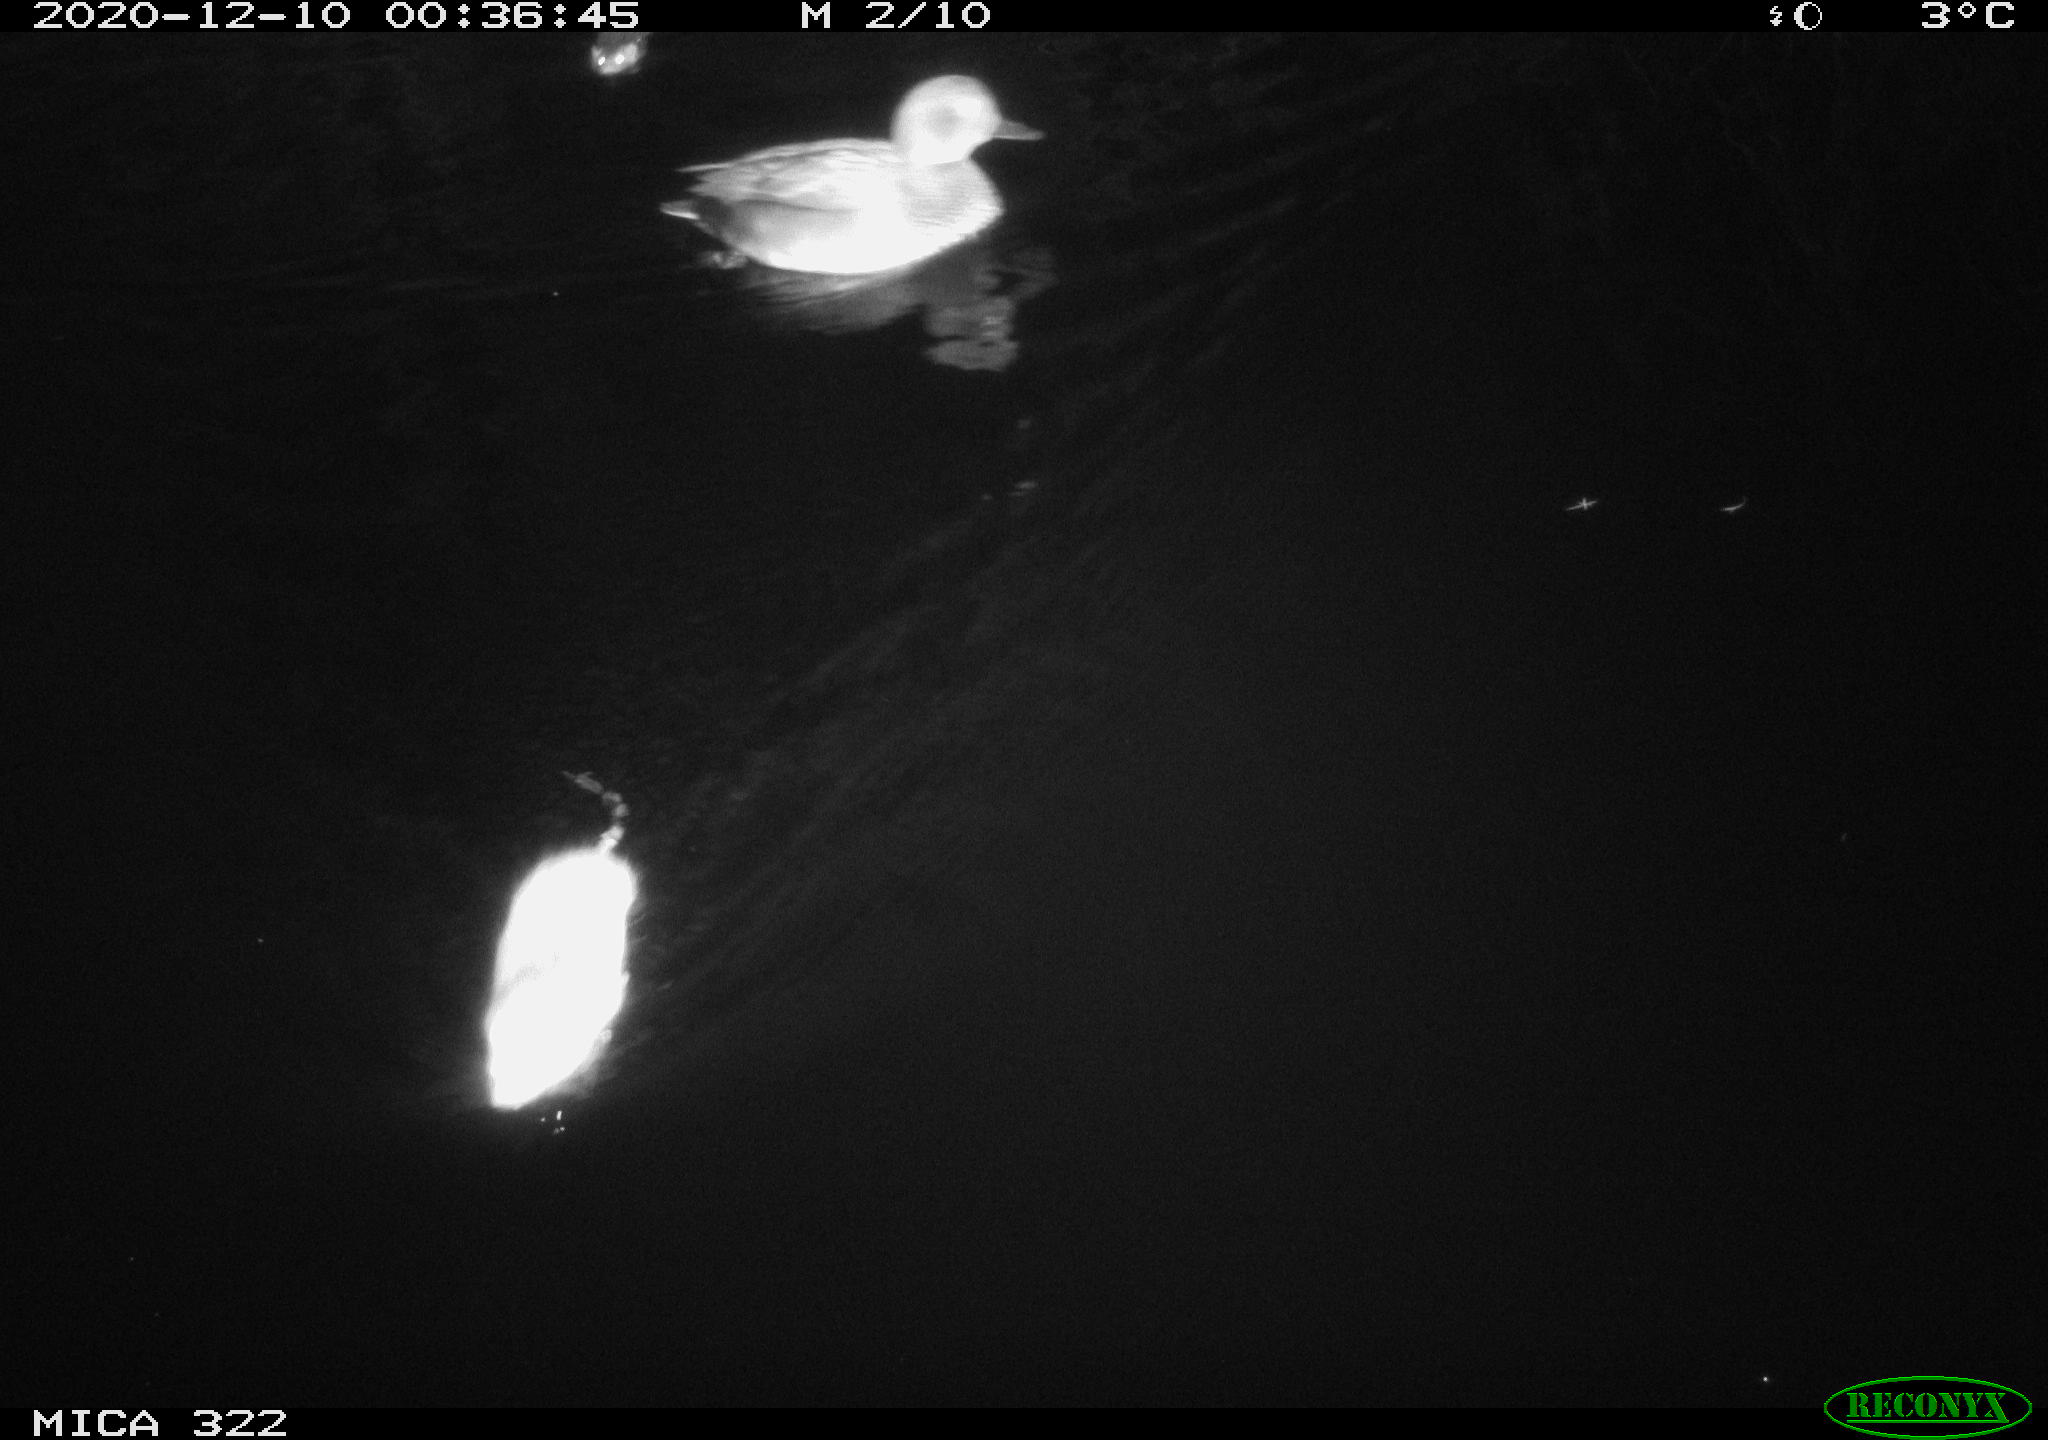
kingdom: Animalia
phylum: Chordata
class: Mammalia
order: Rodentia
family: Muridae
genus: Rattus
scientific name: Rattus norvegicus
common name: Brown rat
